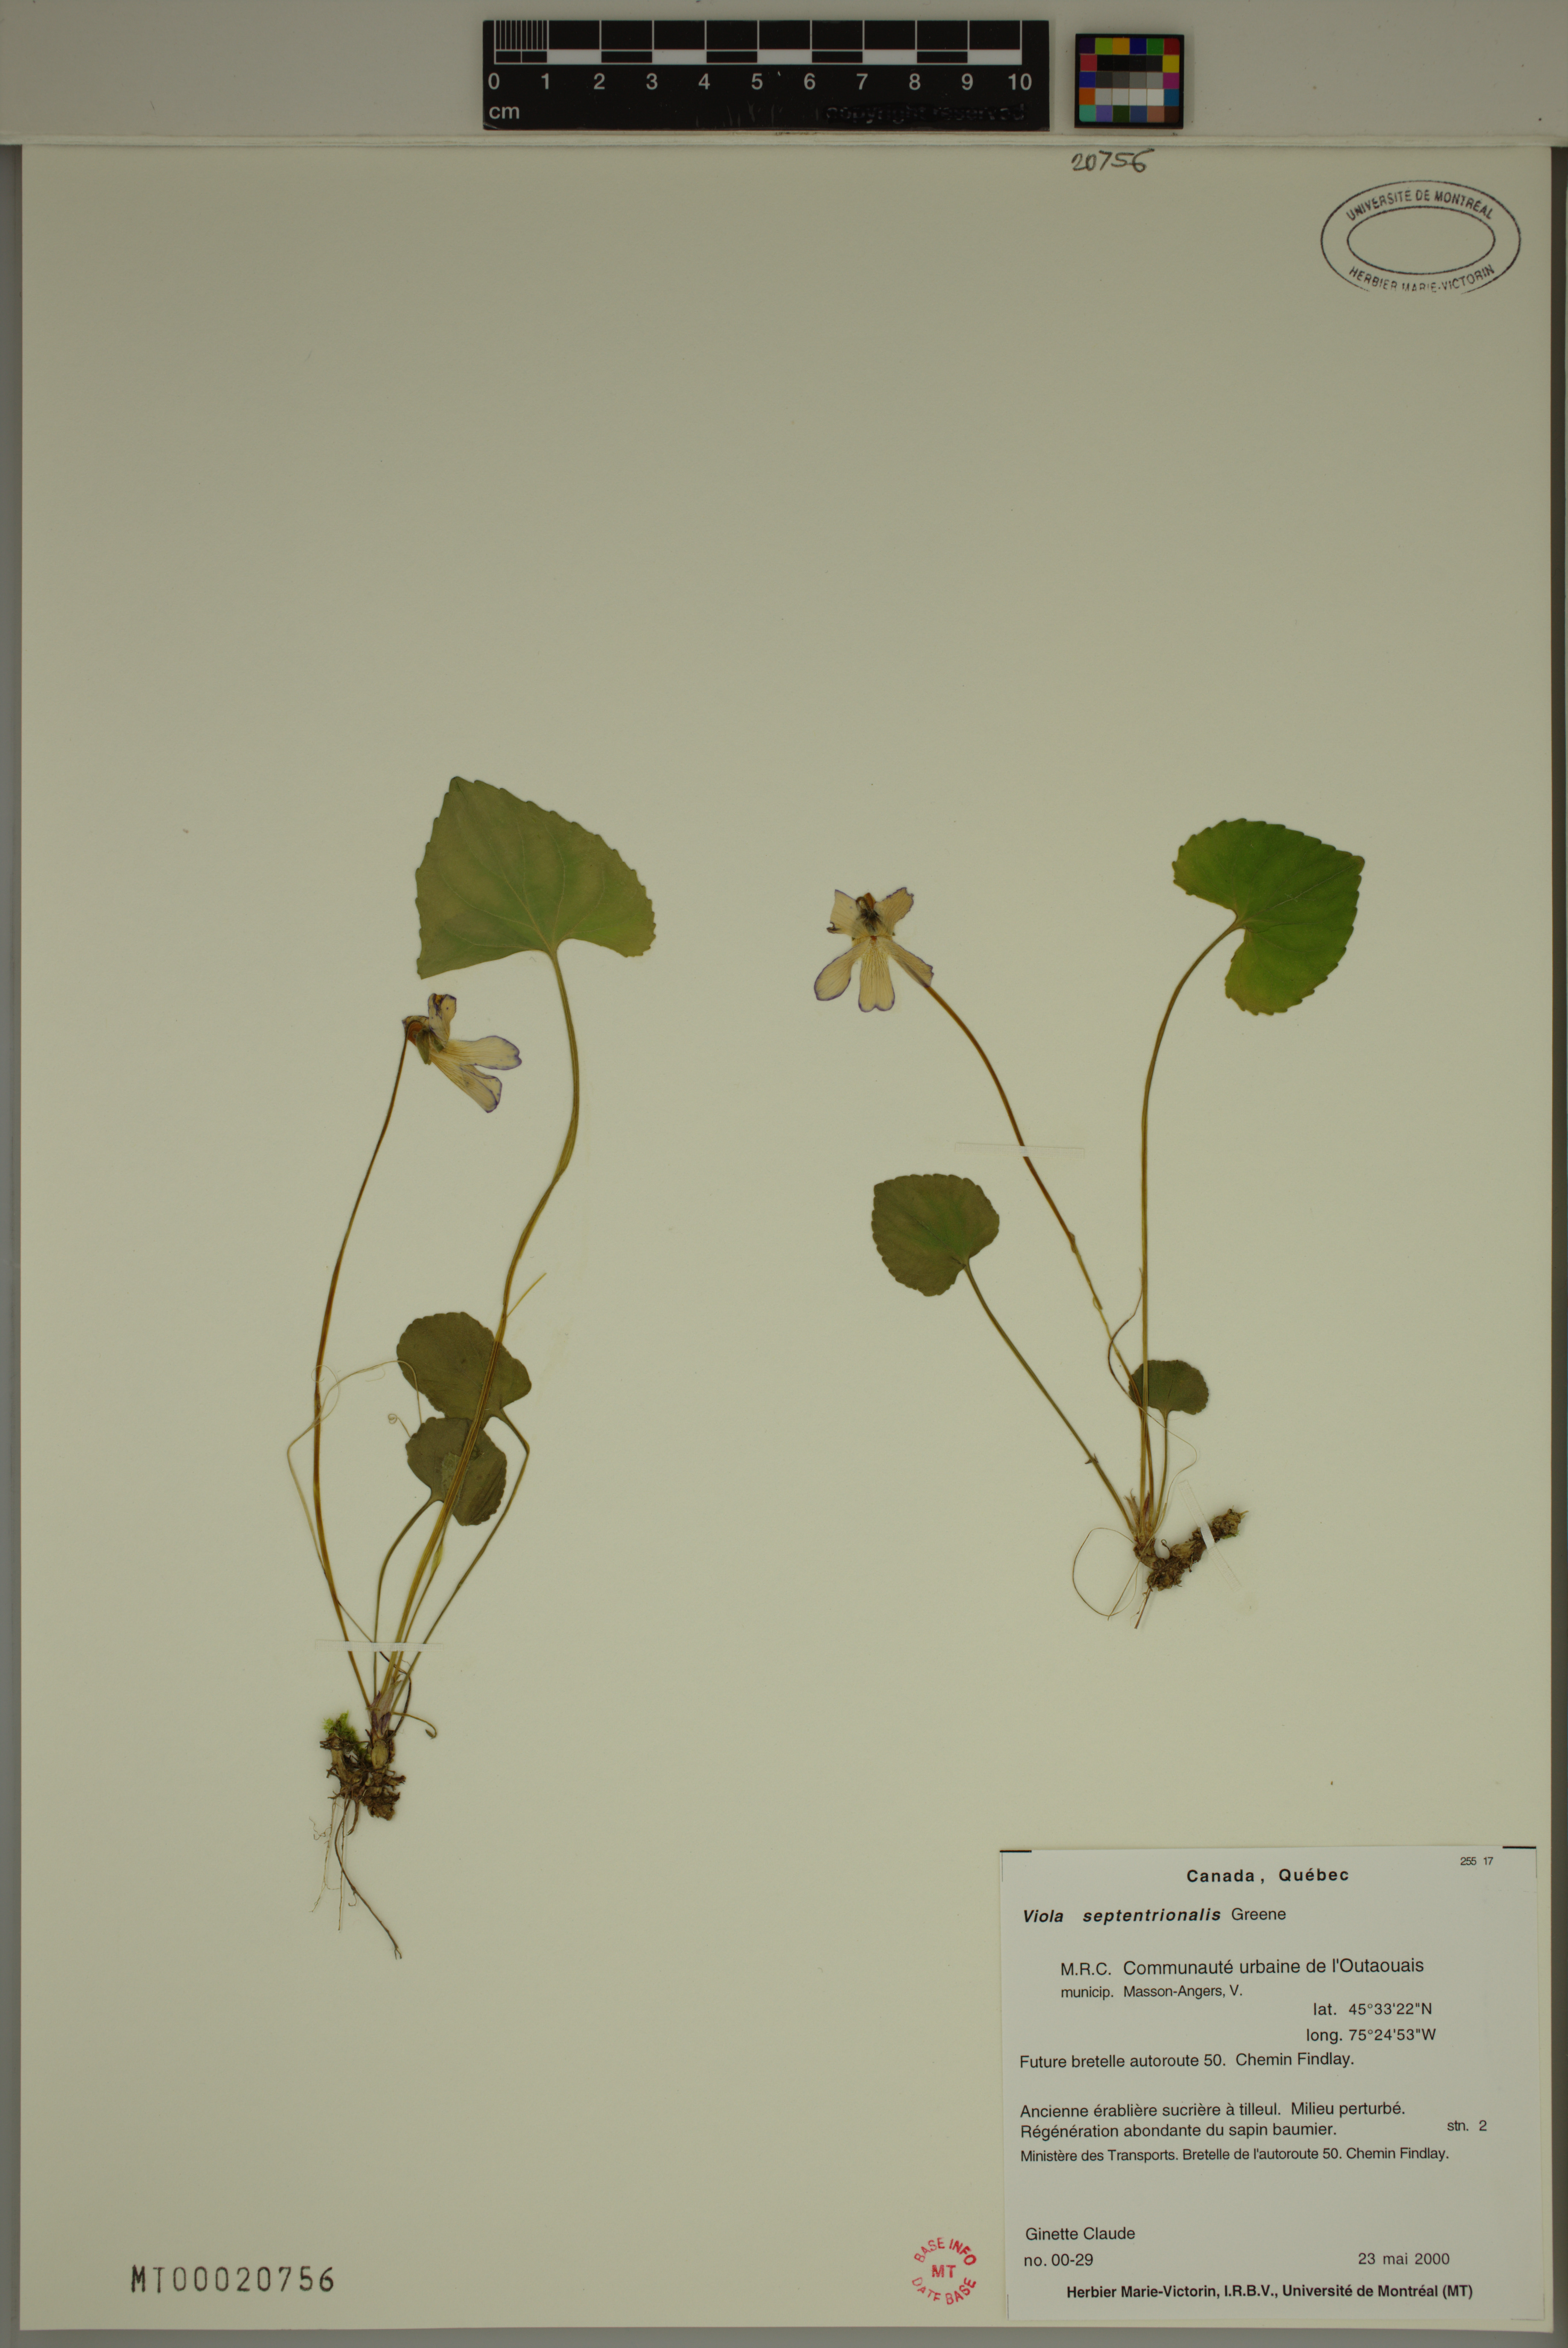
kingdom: Plantae
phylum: Tracheophyta
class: Magnoliopsida
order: Malpighiales
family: Violaceae
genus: Viola
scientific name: Viola sororia
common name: Dooryard violet
